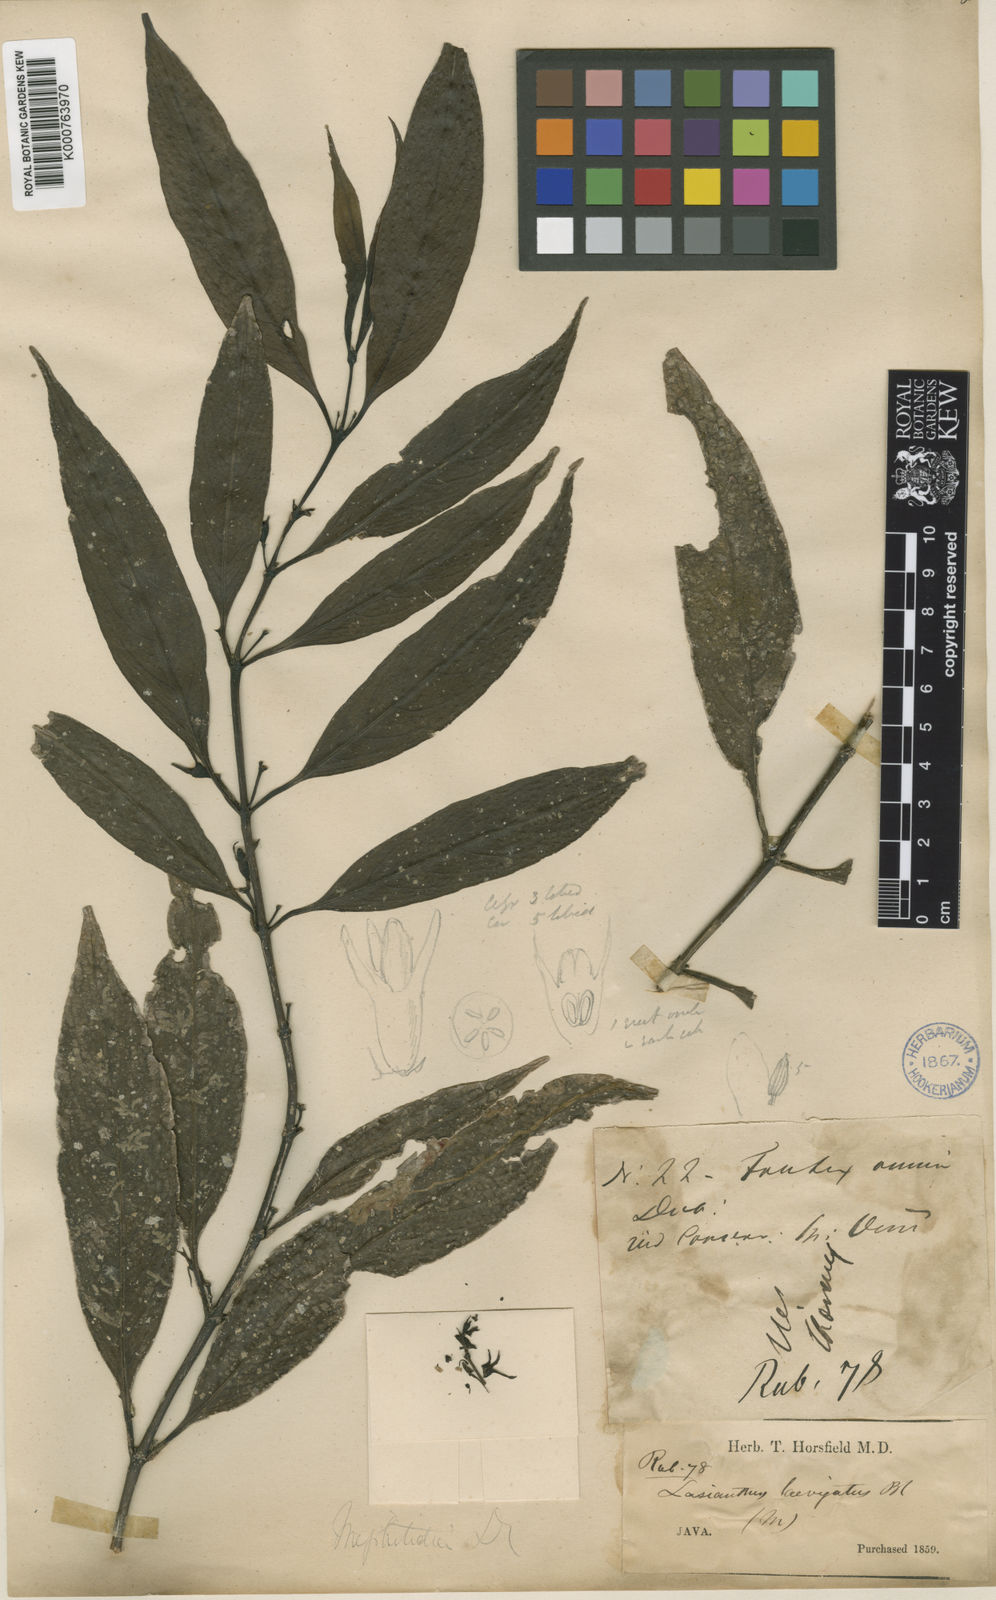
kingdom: Plantae
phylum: Tracheophyta
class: Magnoliopsida
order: Gentianales
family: Rubiaceae
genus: Lasianthus
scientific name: Lasianthus laevigatus
